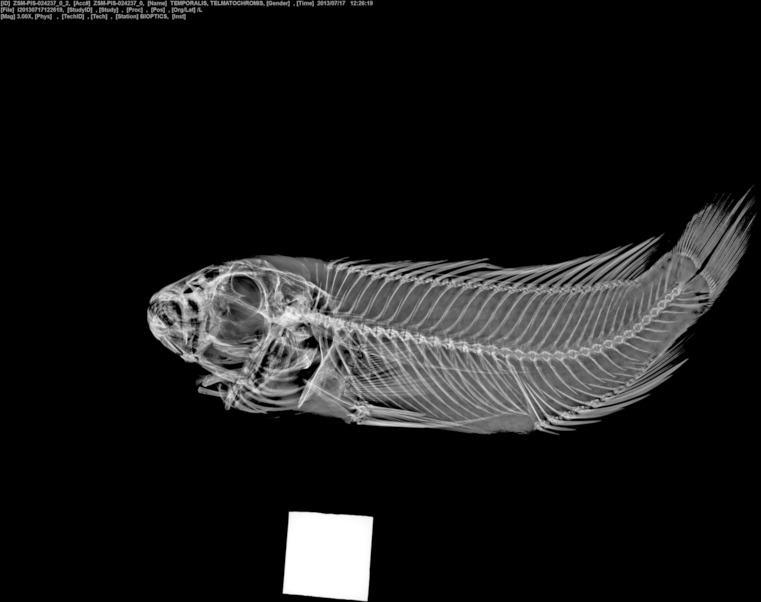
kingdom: Animalia
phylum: Chordata
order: Perciformes
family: Cichlidae
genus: Telmatochromis
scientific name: Telmatochromis temporalis
